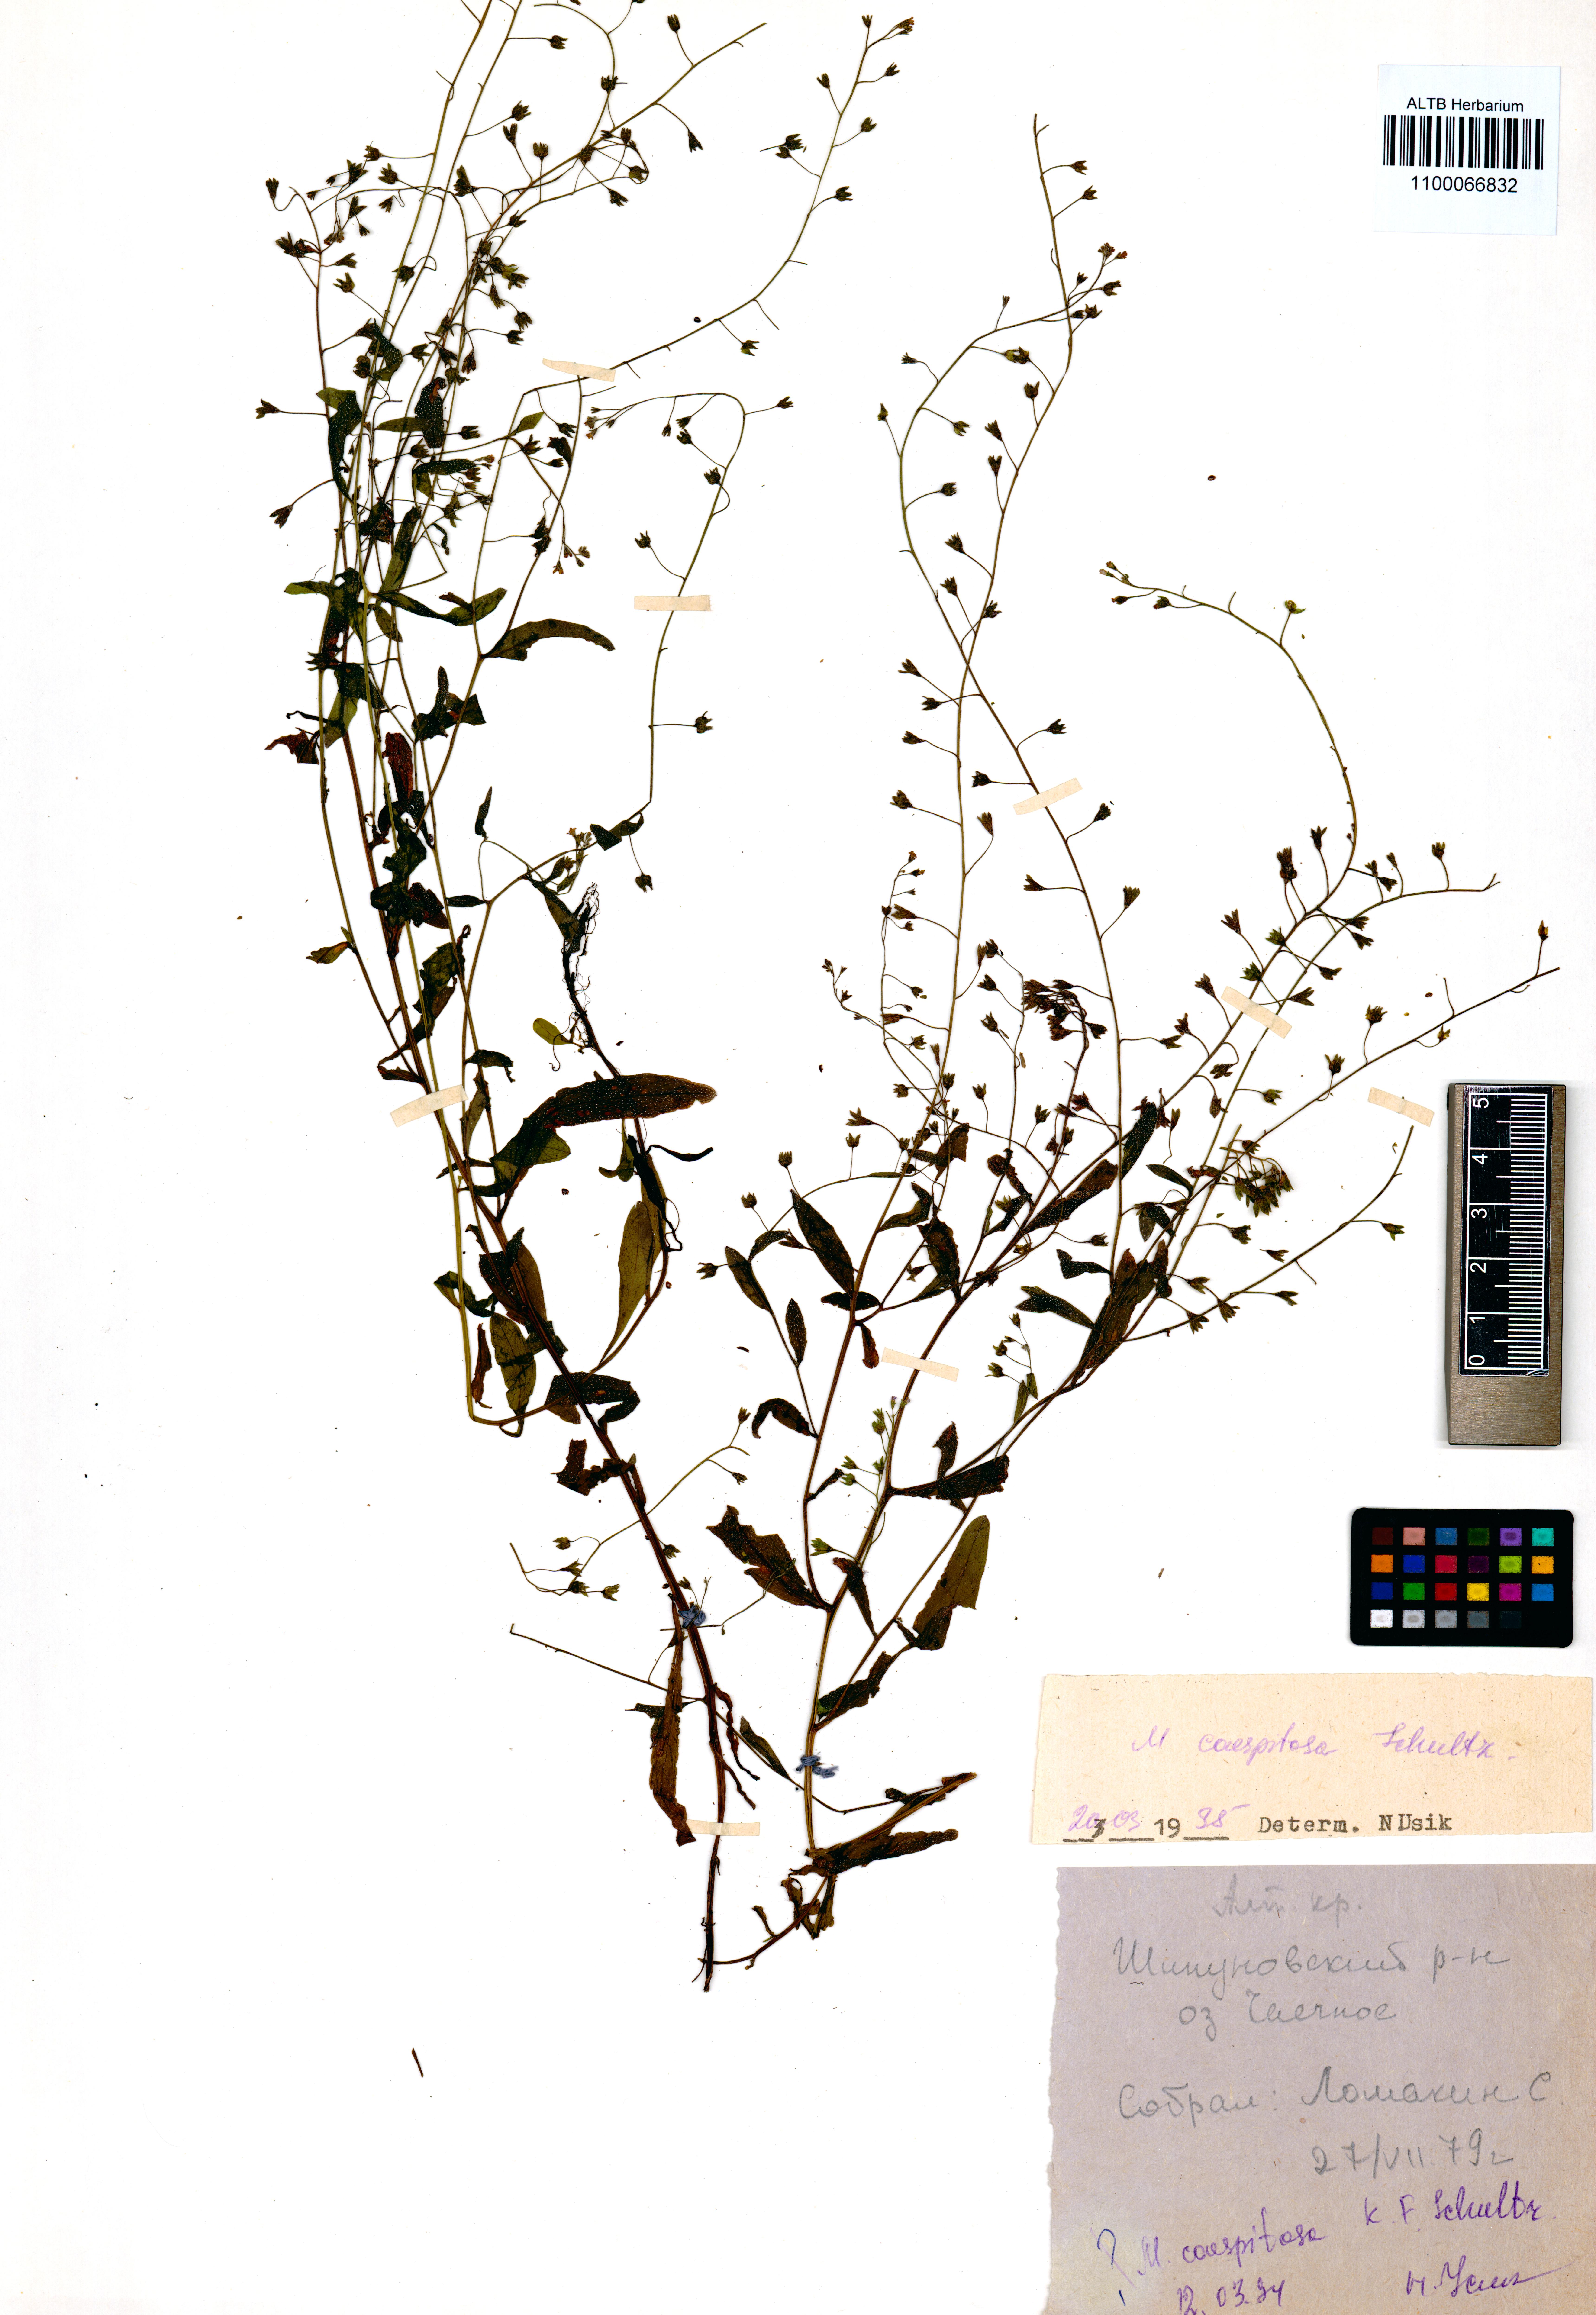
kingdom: Plantae
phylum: Tracheophyta
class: Magnoliopsida
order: Boraginales
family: Boraginaceae
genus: Myosotis
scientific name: Myosotis laxa
